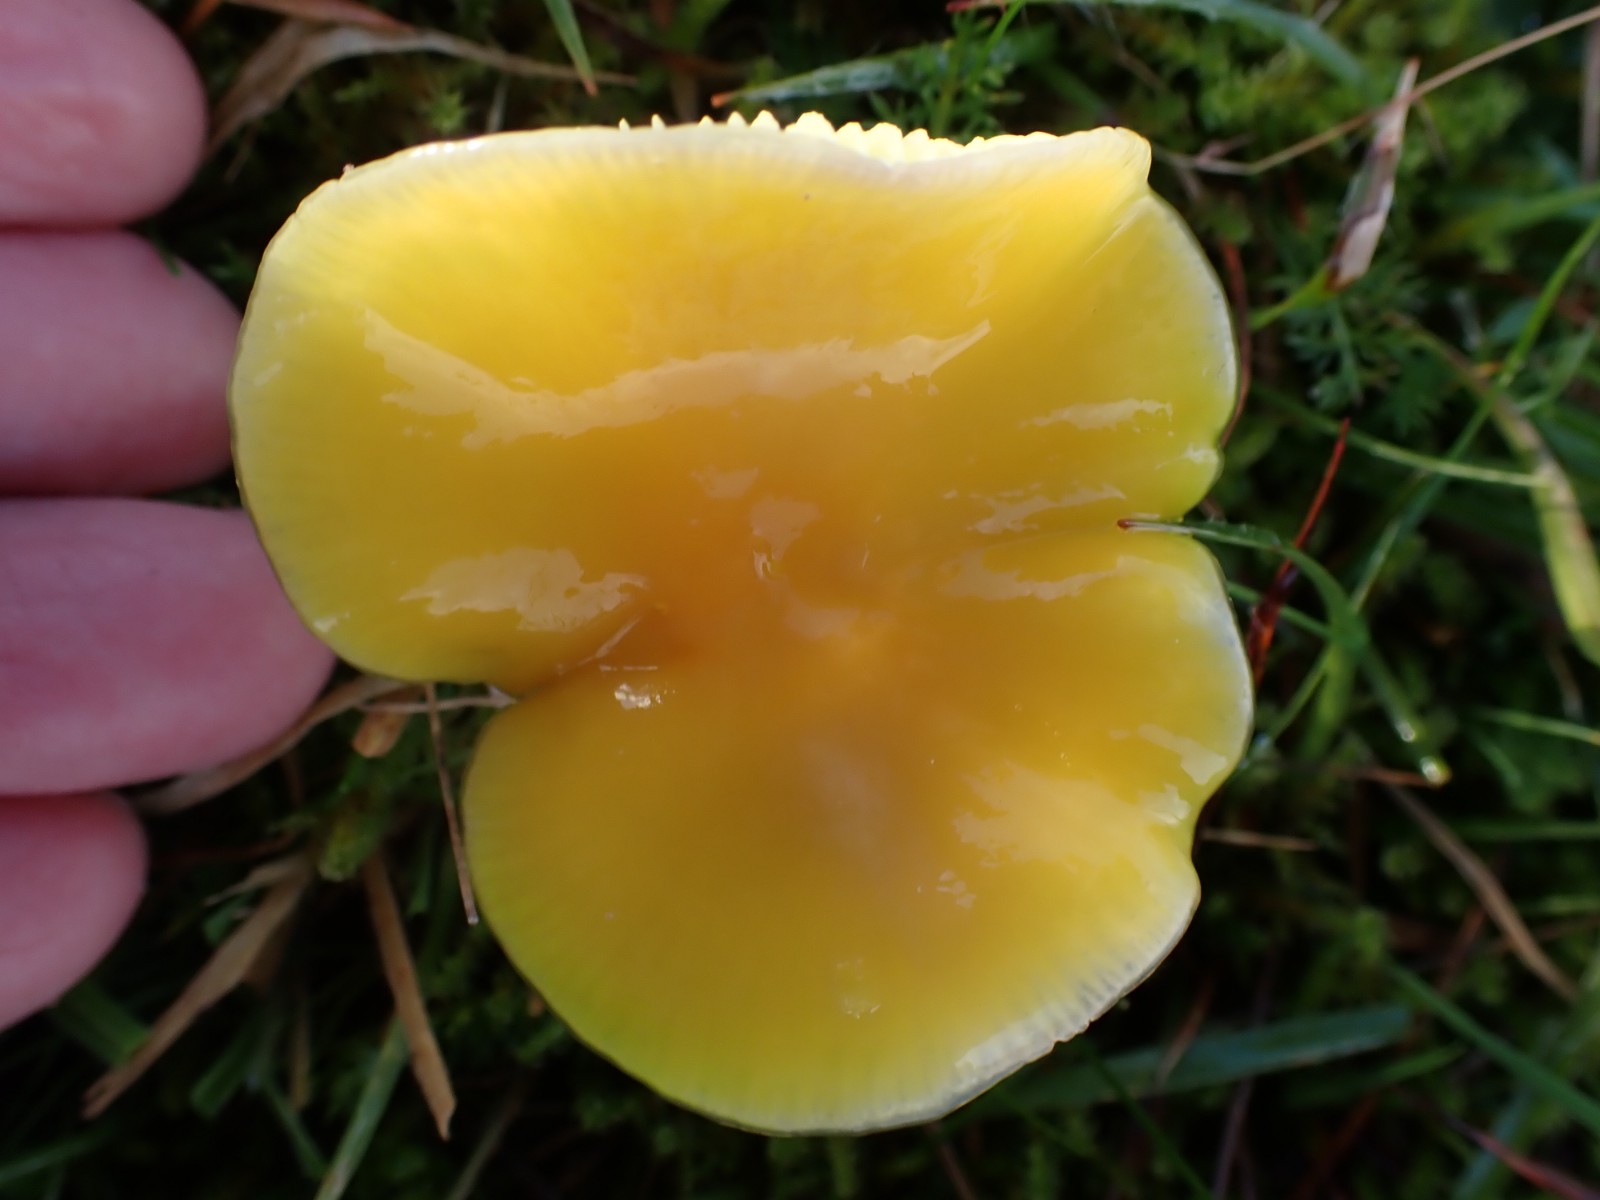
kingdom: Fungi
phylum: Basidiomycota
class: Agaricomycetes
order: Agaricales
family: Hygrophoraceae
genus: Hygrocybe
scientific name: Hygrocybe chlorophana
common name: gul vokshat
